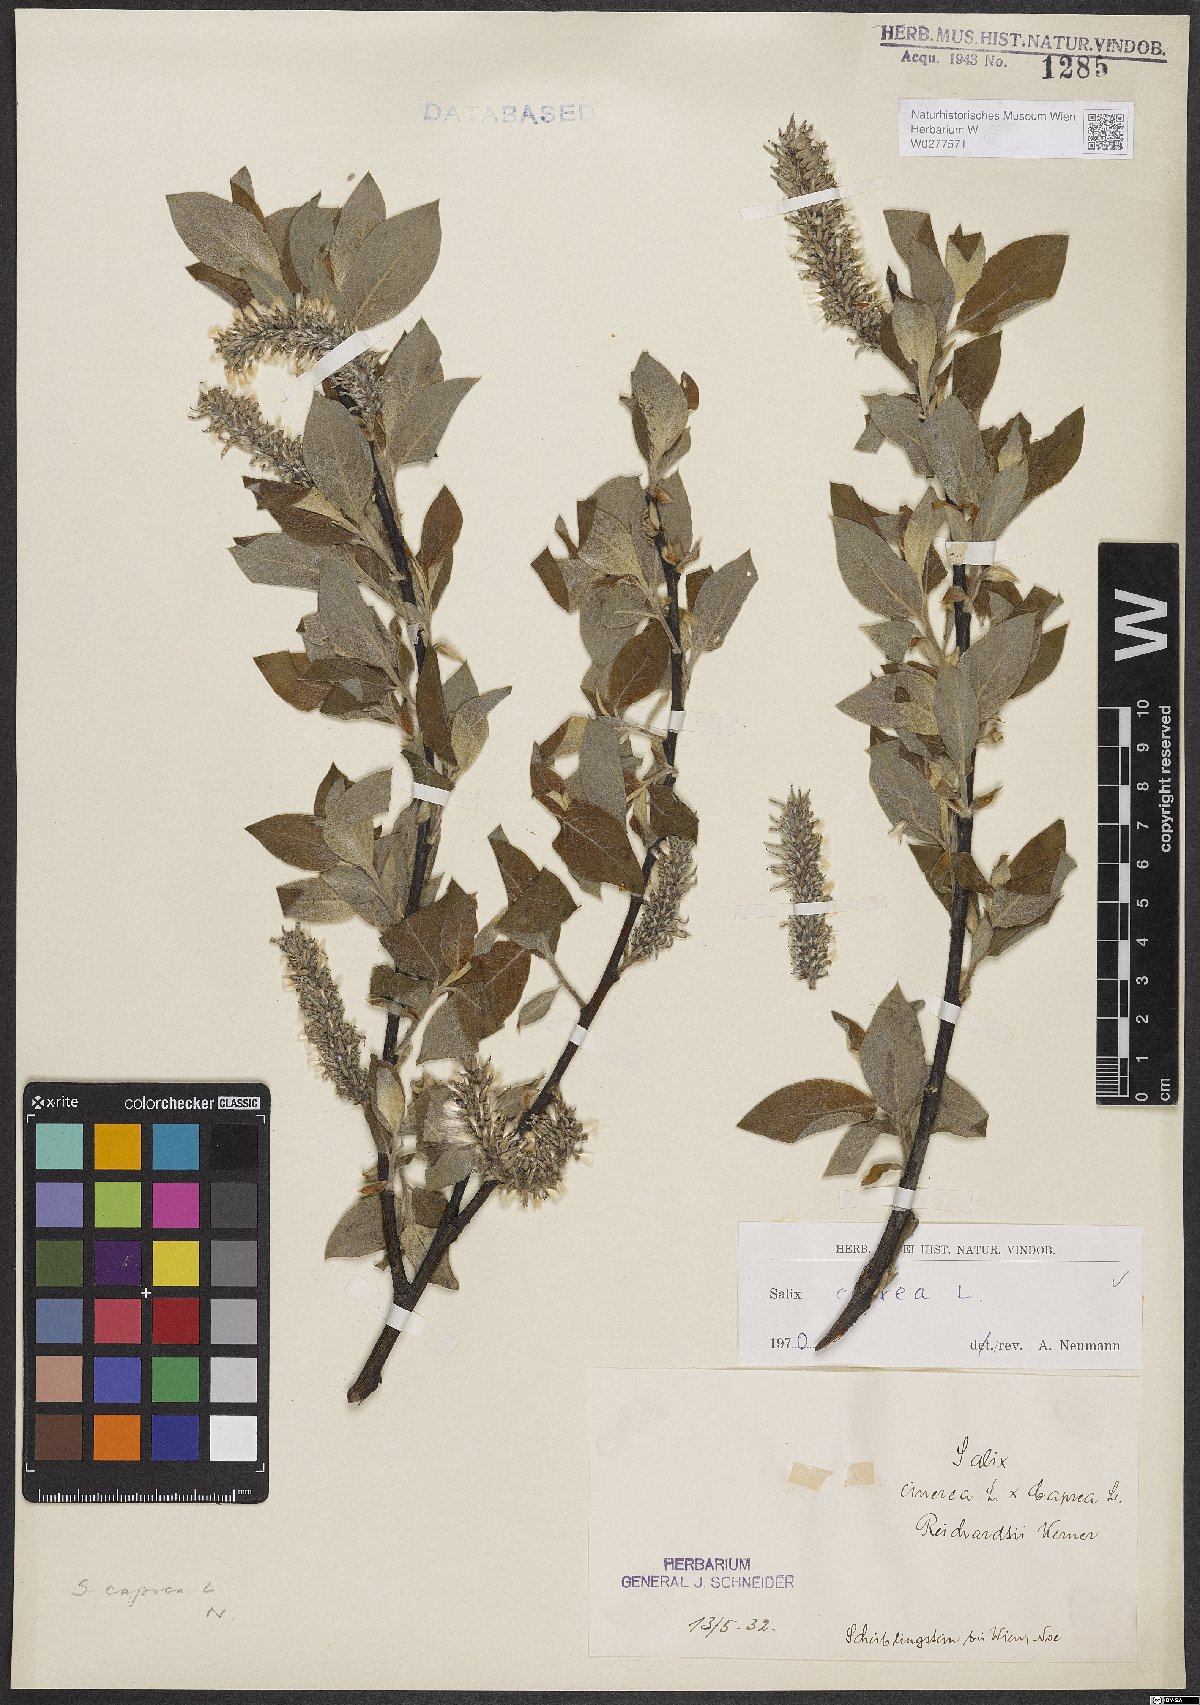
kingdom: Plantae
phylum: Tracheophyta
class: Magnoliopsida
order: Malpighiales
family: Salicaceae
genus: Salix
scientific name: Salix caprea
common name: Goat willow
